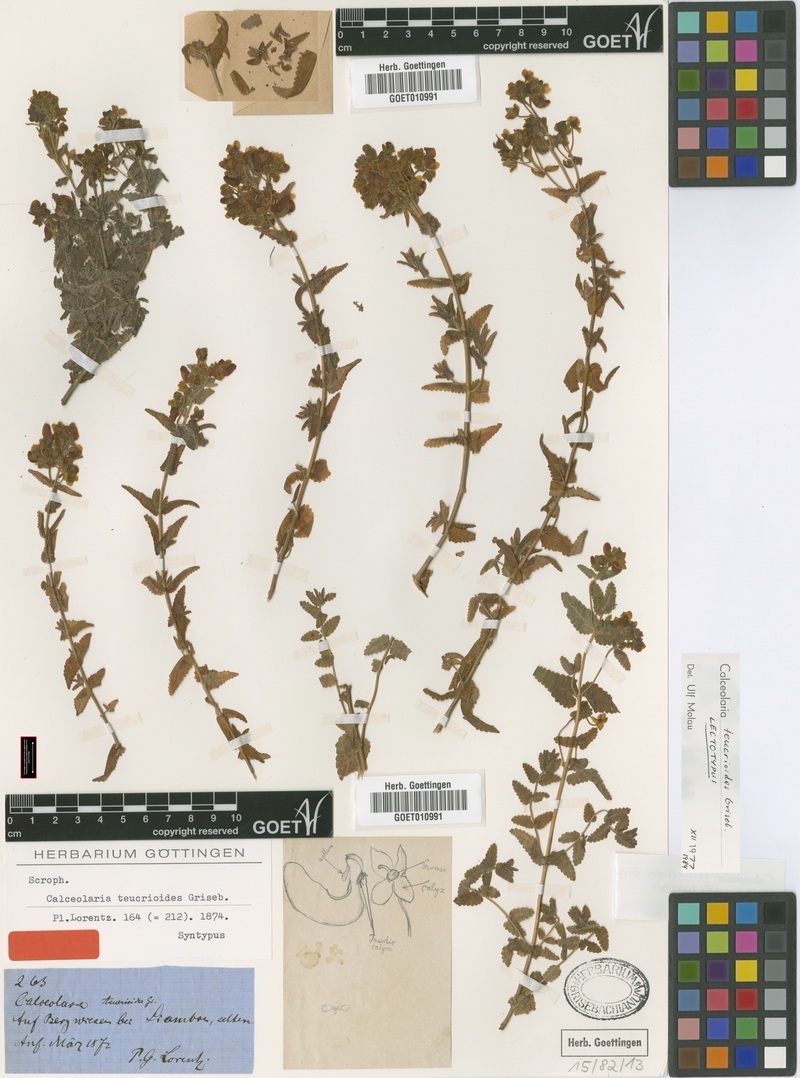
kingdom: Plantae
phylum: Tracheophyta
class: Magnoliopsida
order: Lamiales
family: Calceolariaceae
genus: Calceolaria
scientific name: Calceolaria teucrioides
